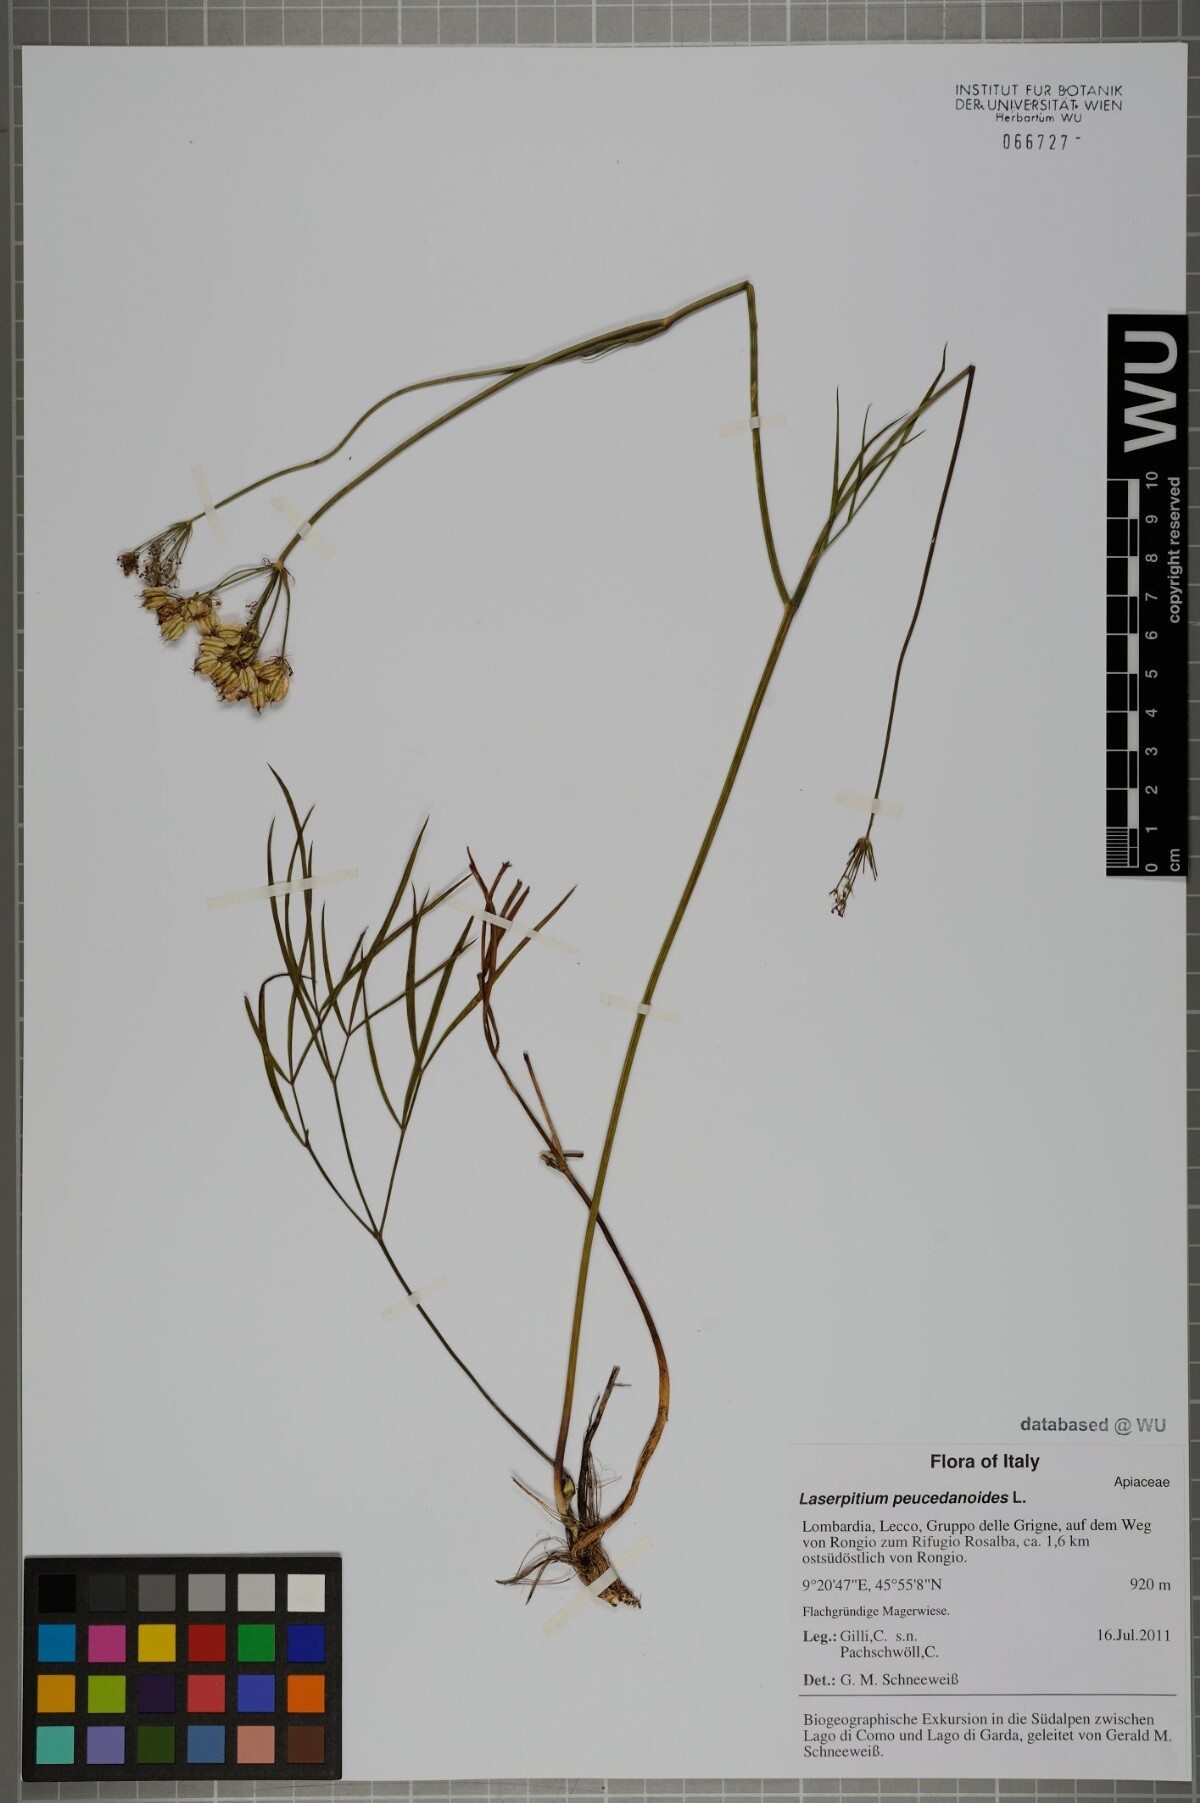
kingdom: Plantae
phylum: Tracheophyta
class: Magnoliopsida
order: Apiales
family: Apiaceae
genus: Laserpitium
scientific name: Laserpitium peucedanoides
